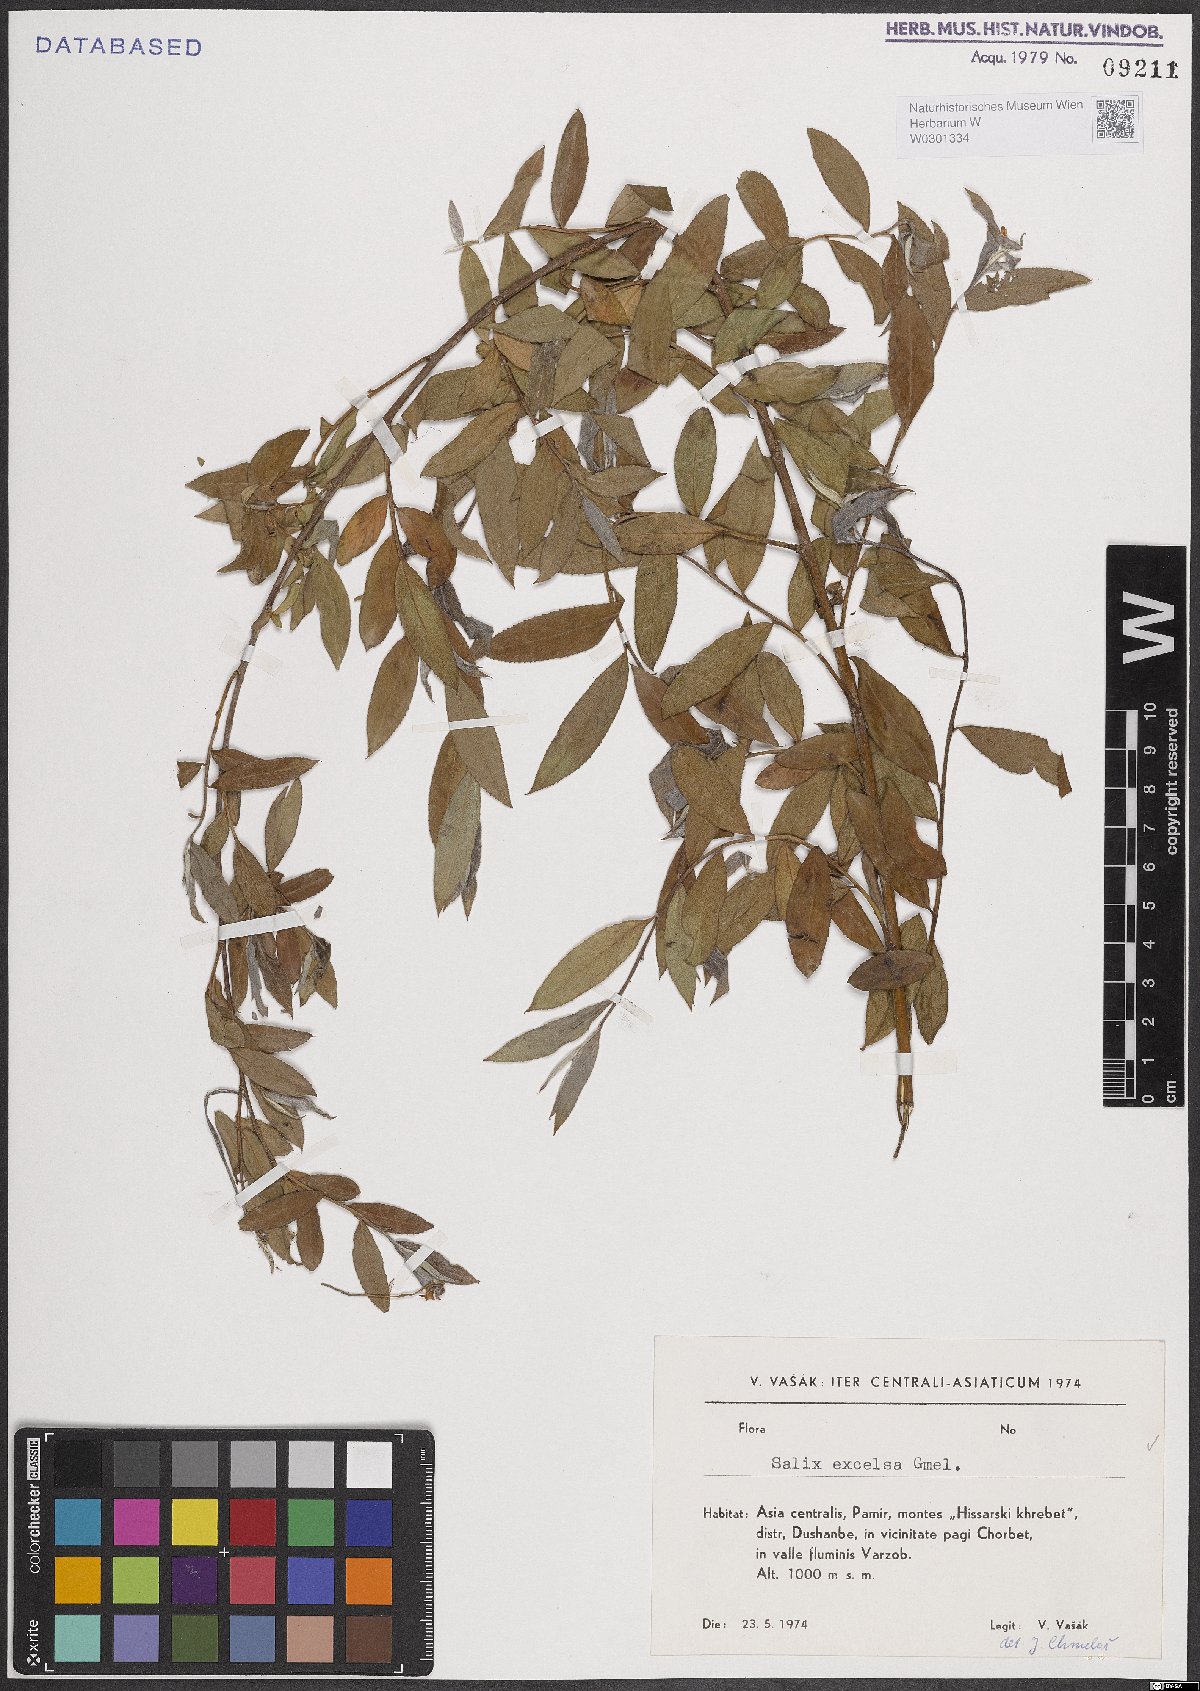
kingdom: Plantae
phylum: Tracheophyta
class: Magnoliopsida
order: Malpighiales
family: Salicaceae
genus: Salix
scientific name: Salix excelsa
